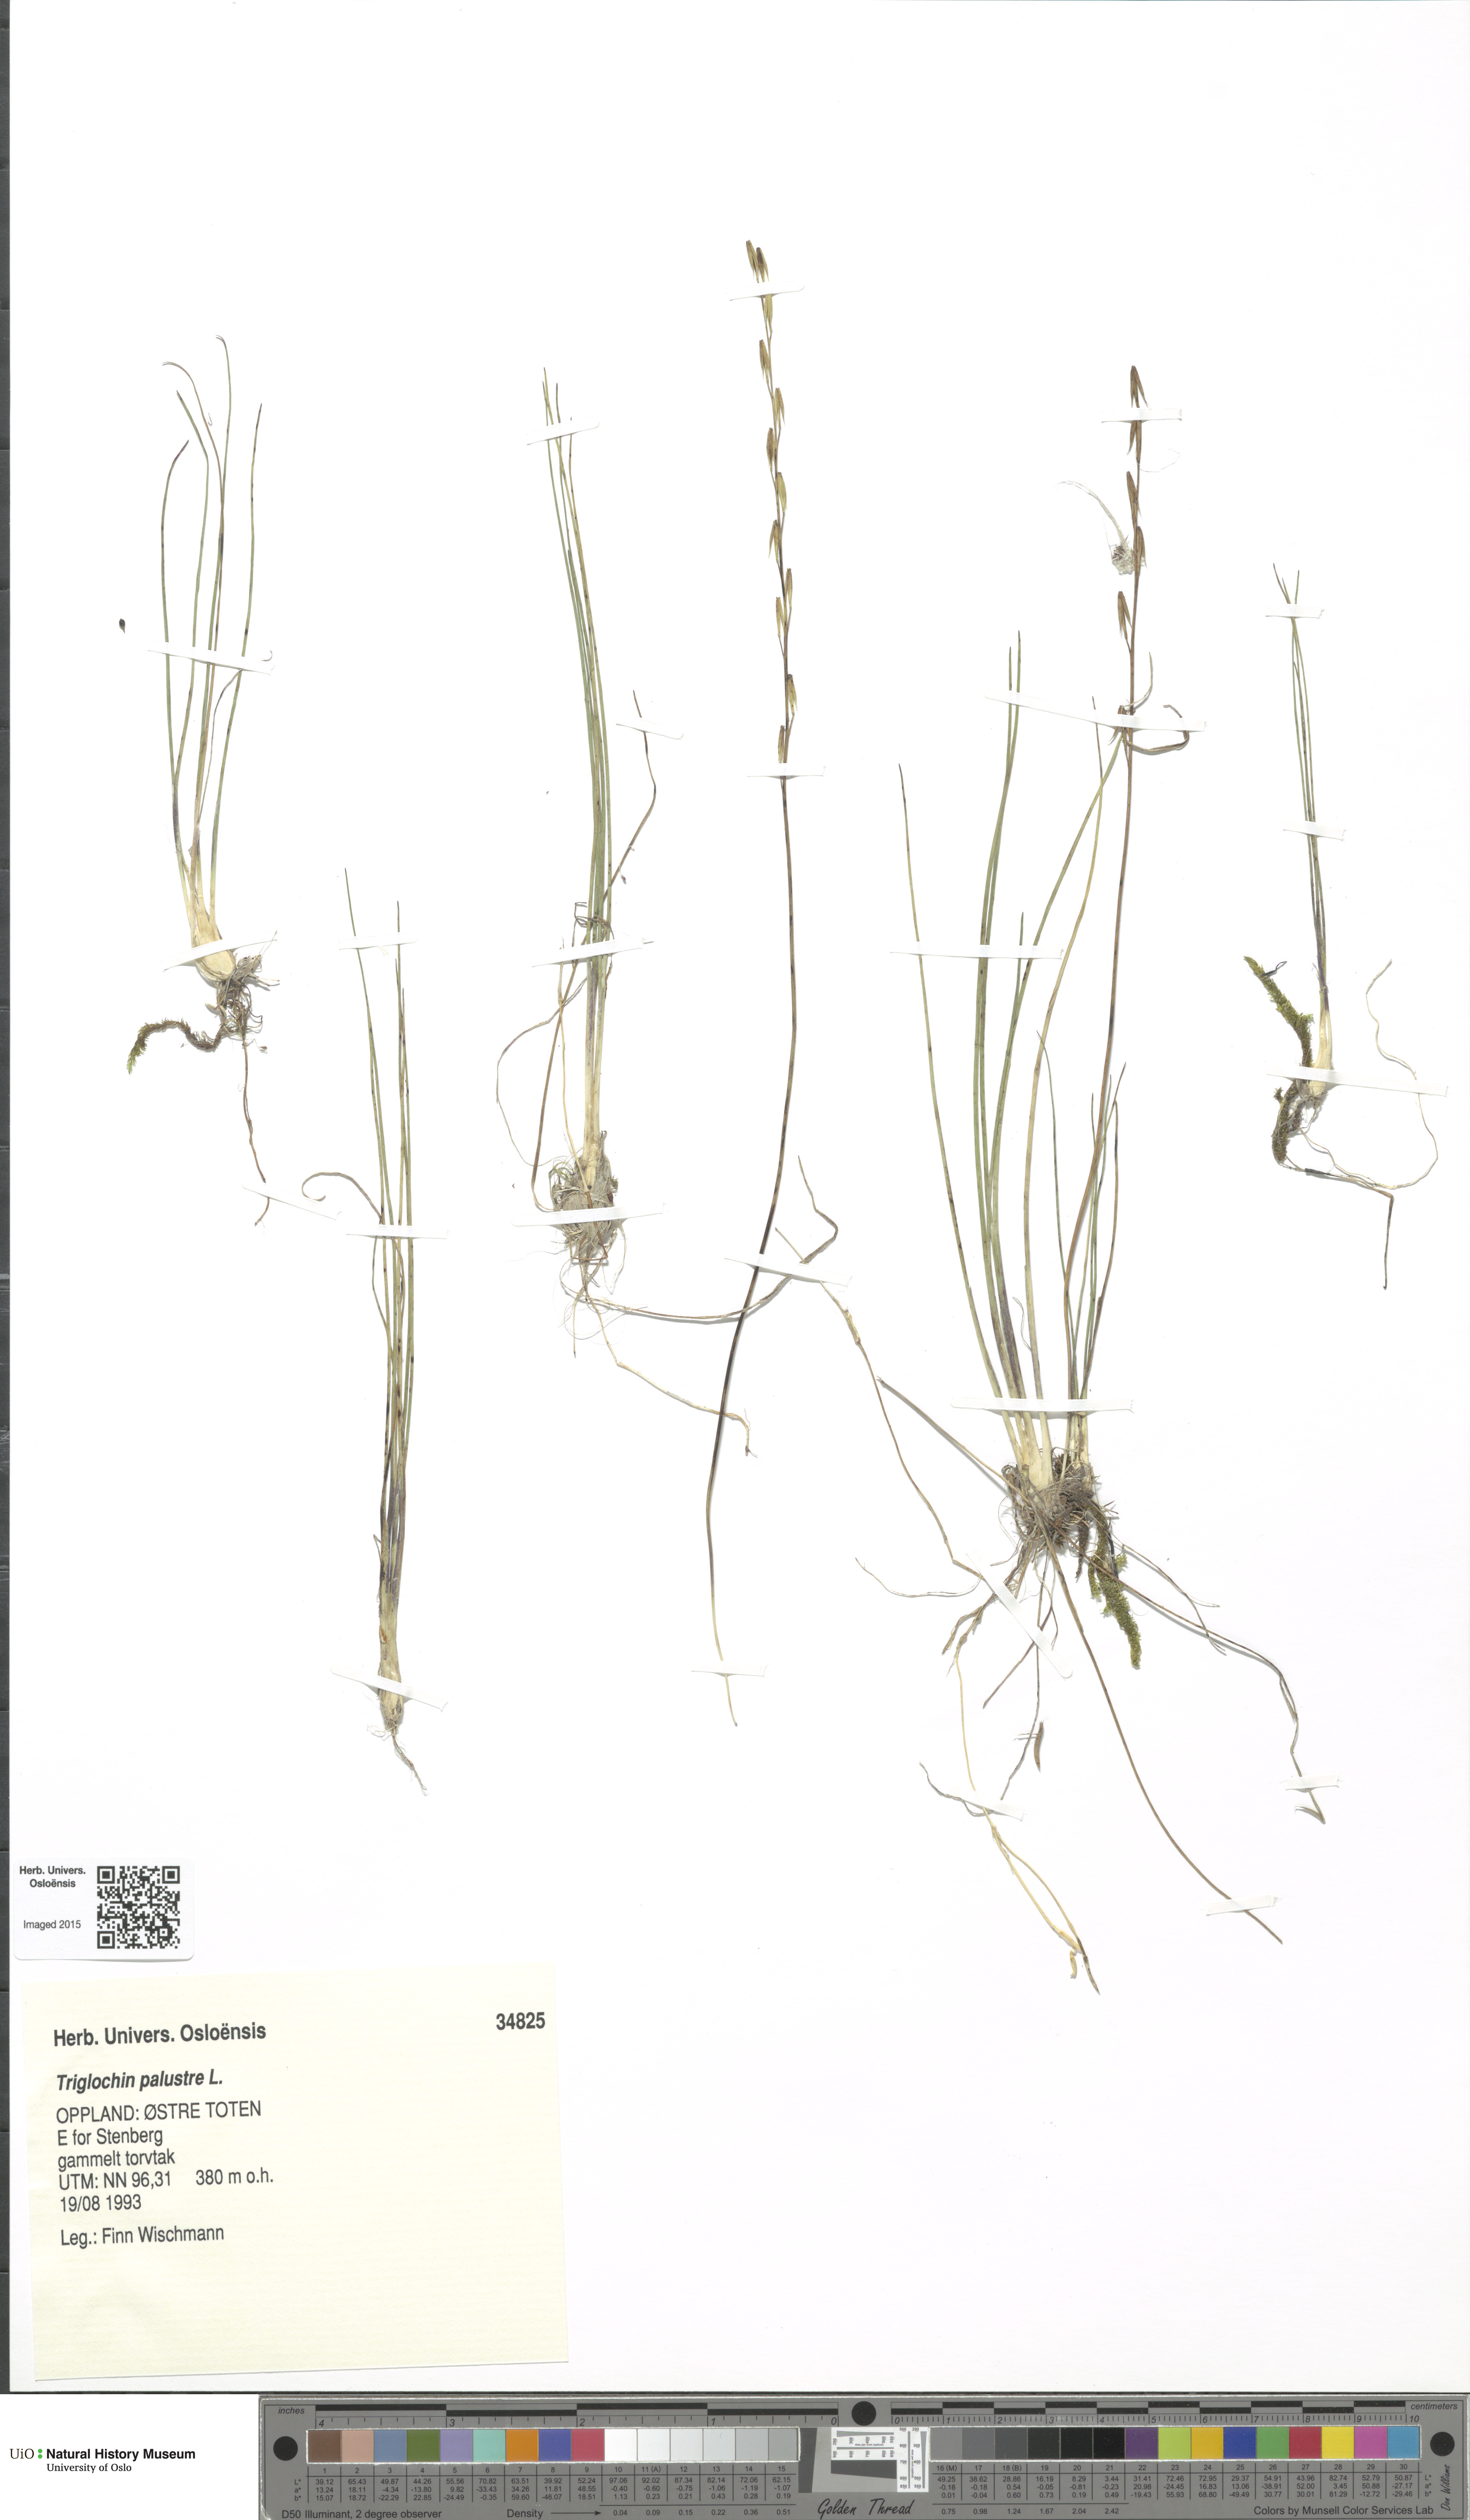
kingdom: Plantae
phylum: Tracheophyta
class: Liliopsida
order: Alismatales
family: Juncaginaceae
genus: Triglochin
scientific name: Triglochin palustris
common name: Marsh arrowgrass
